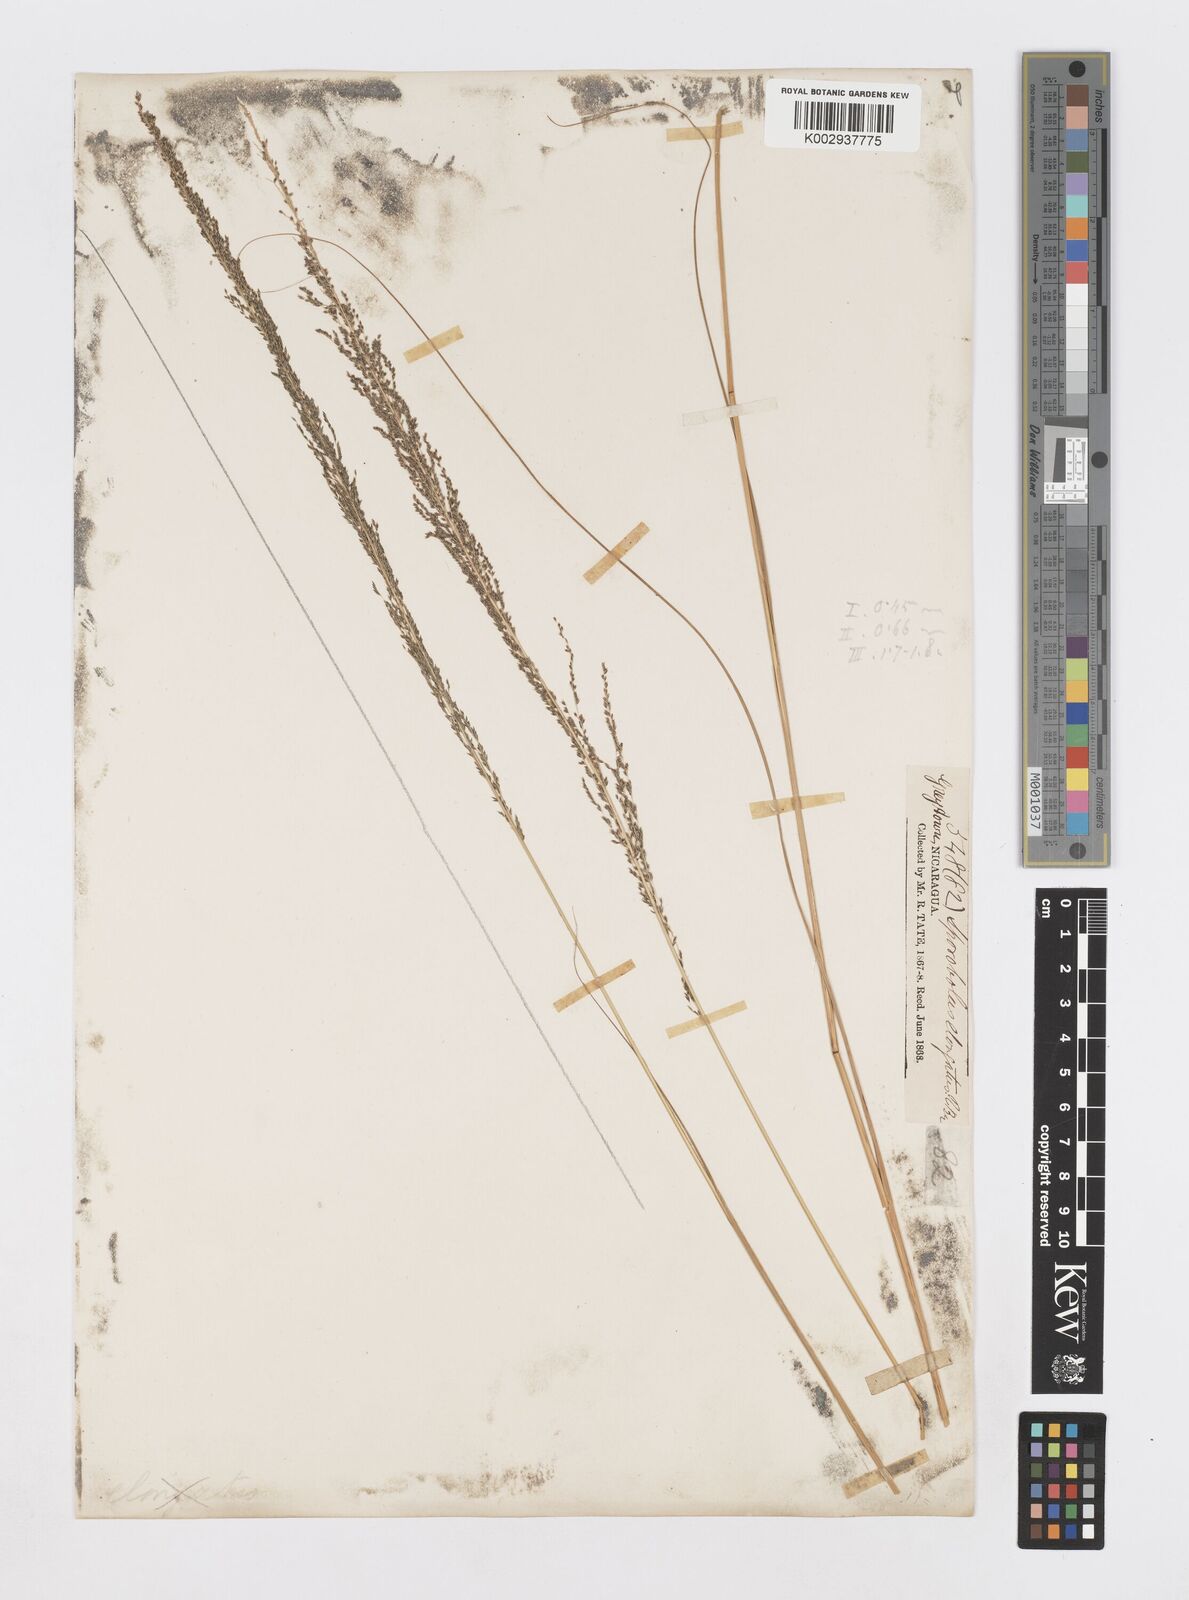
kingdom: Plantae
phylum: Tracheophyta
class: Liliopsida
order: Poales
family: Poaceae
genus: Sporobolus
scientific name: Sporobolus pyramidalis
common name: West indian dropseed
